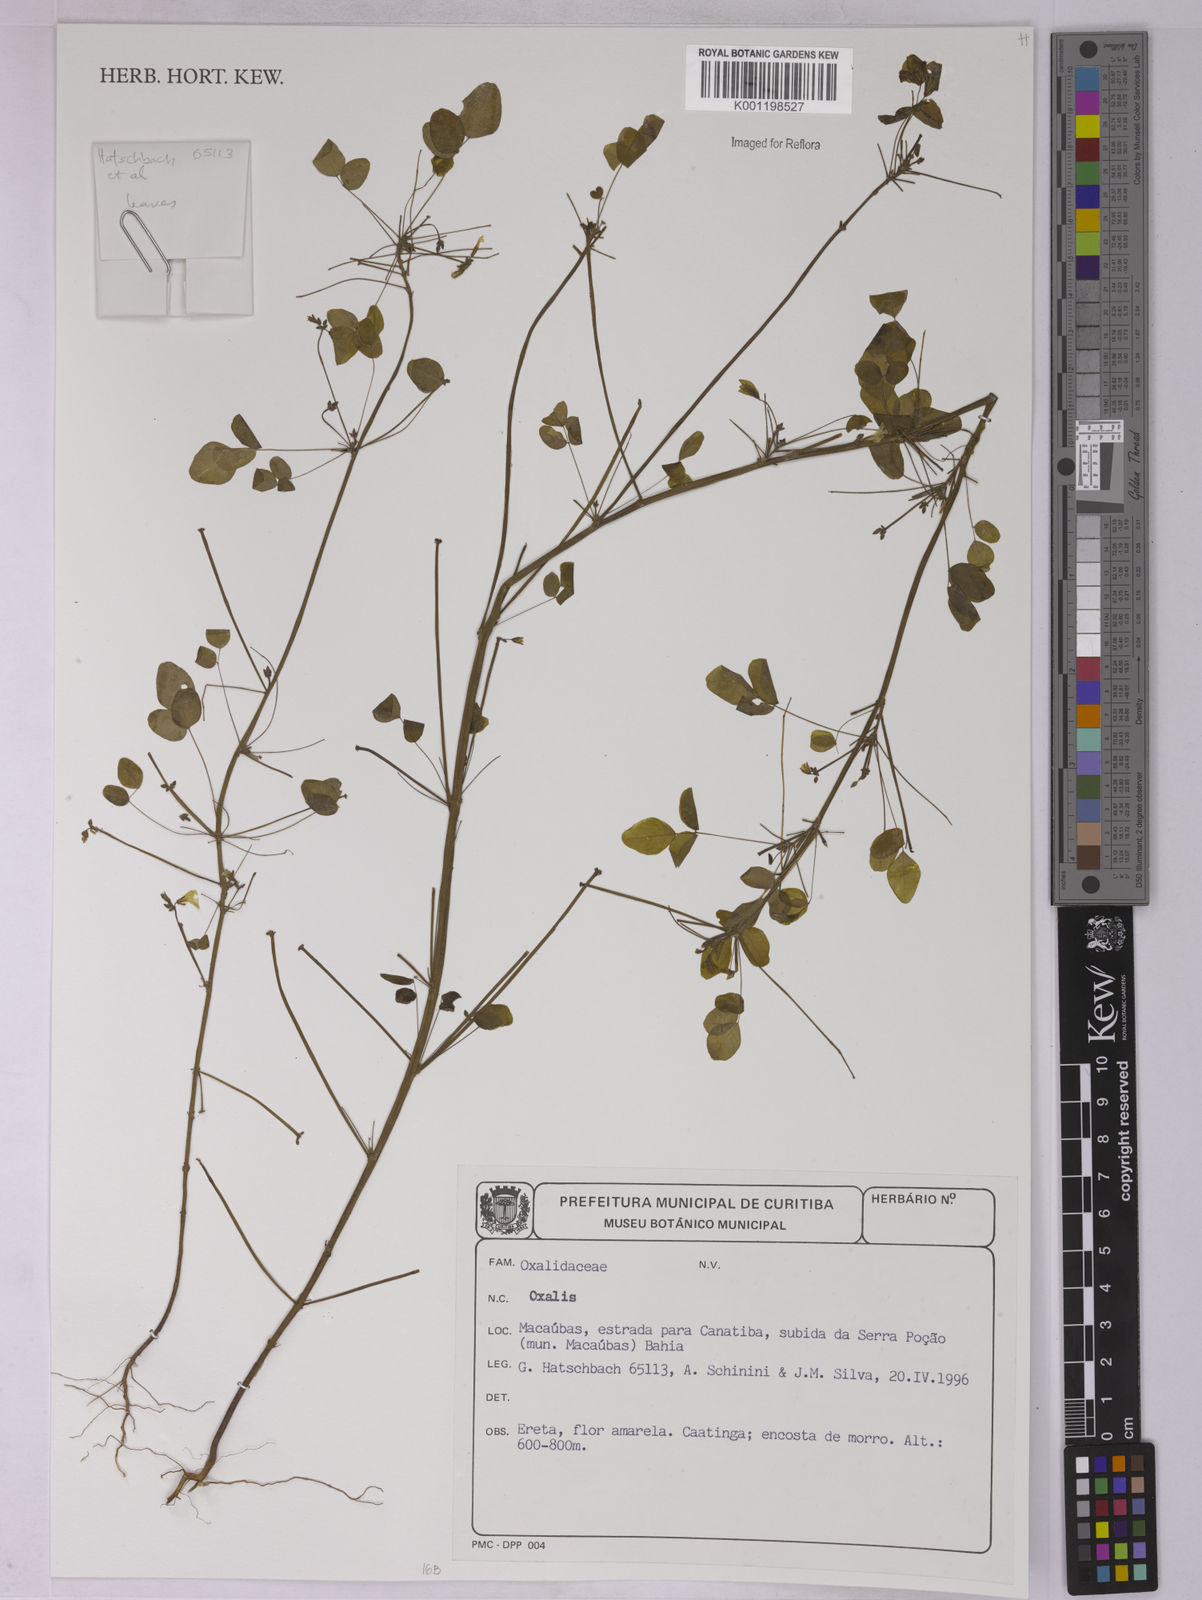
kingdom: Plantae
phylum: Tracheophyta
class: Magnoliopsida
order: Oxalidales
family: Oxalidaceae
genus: Oxalis
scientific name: Oxalis
